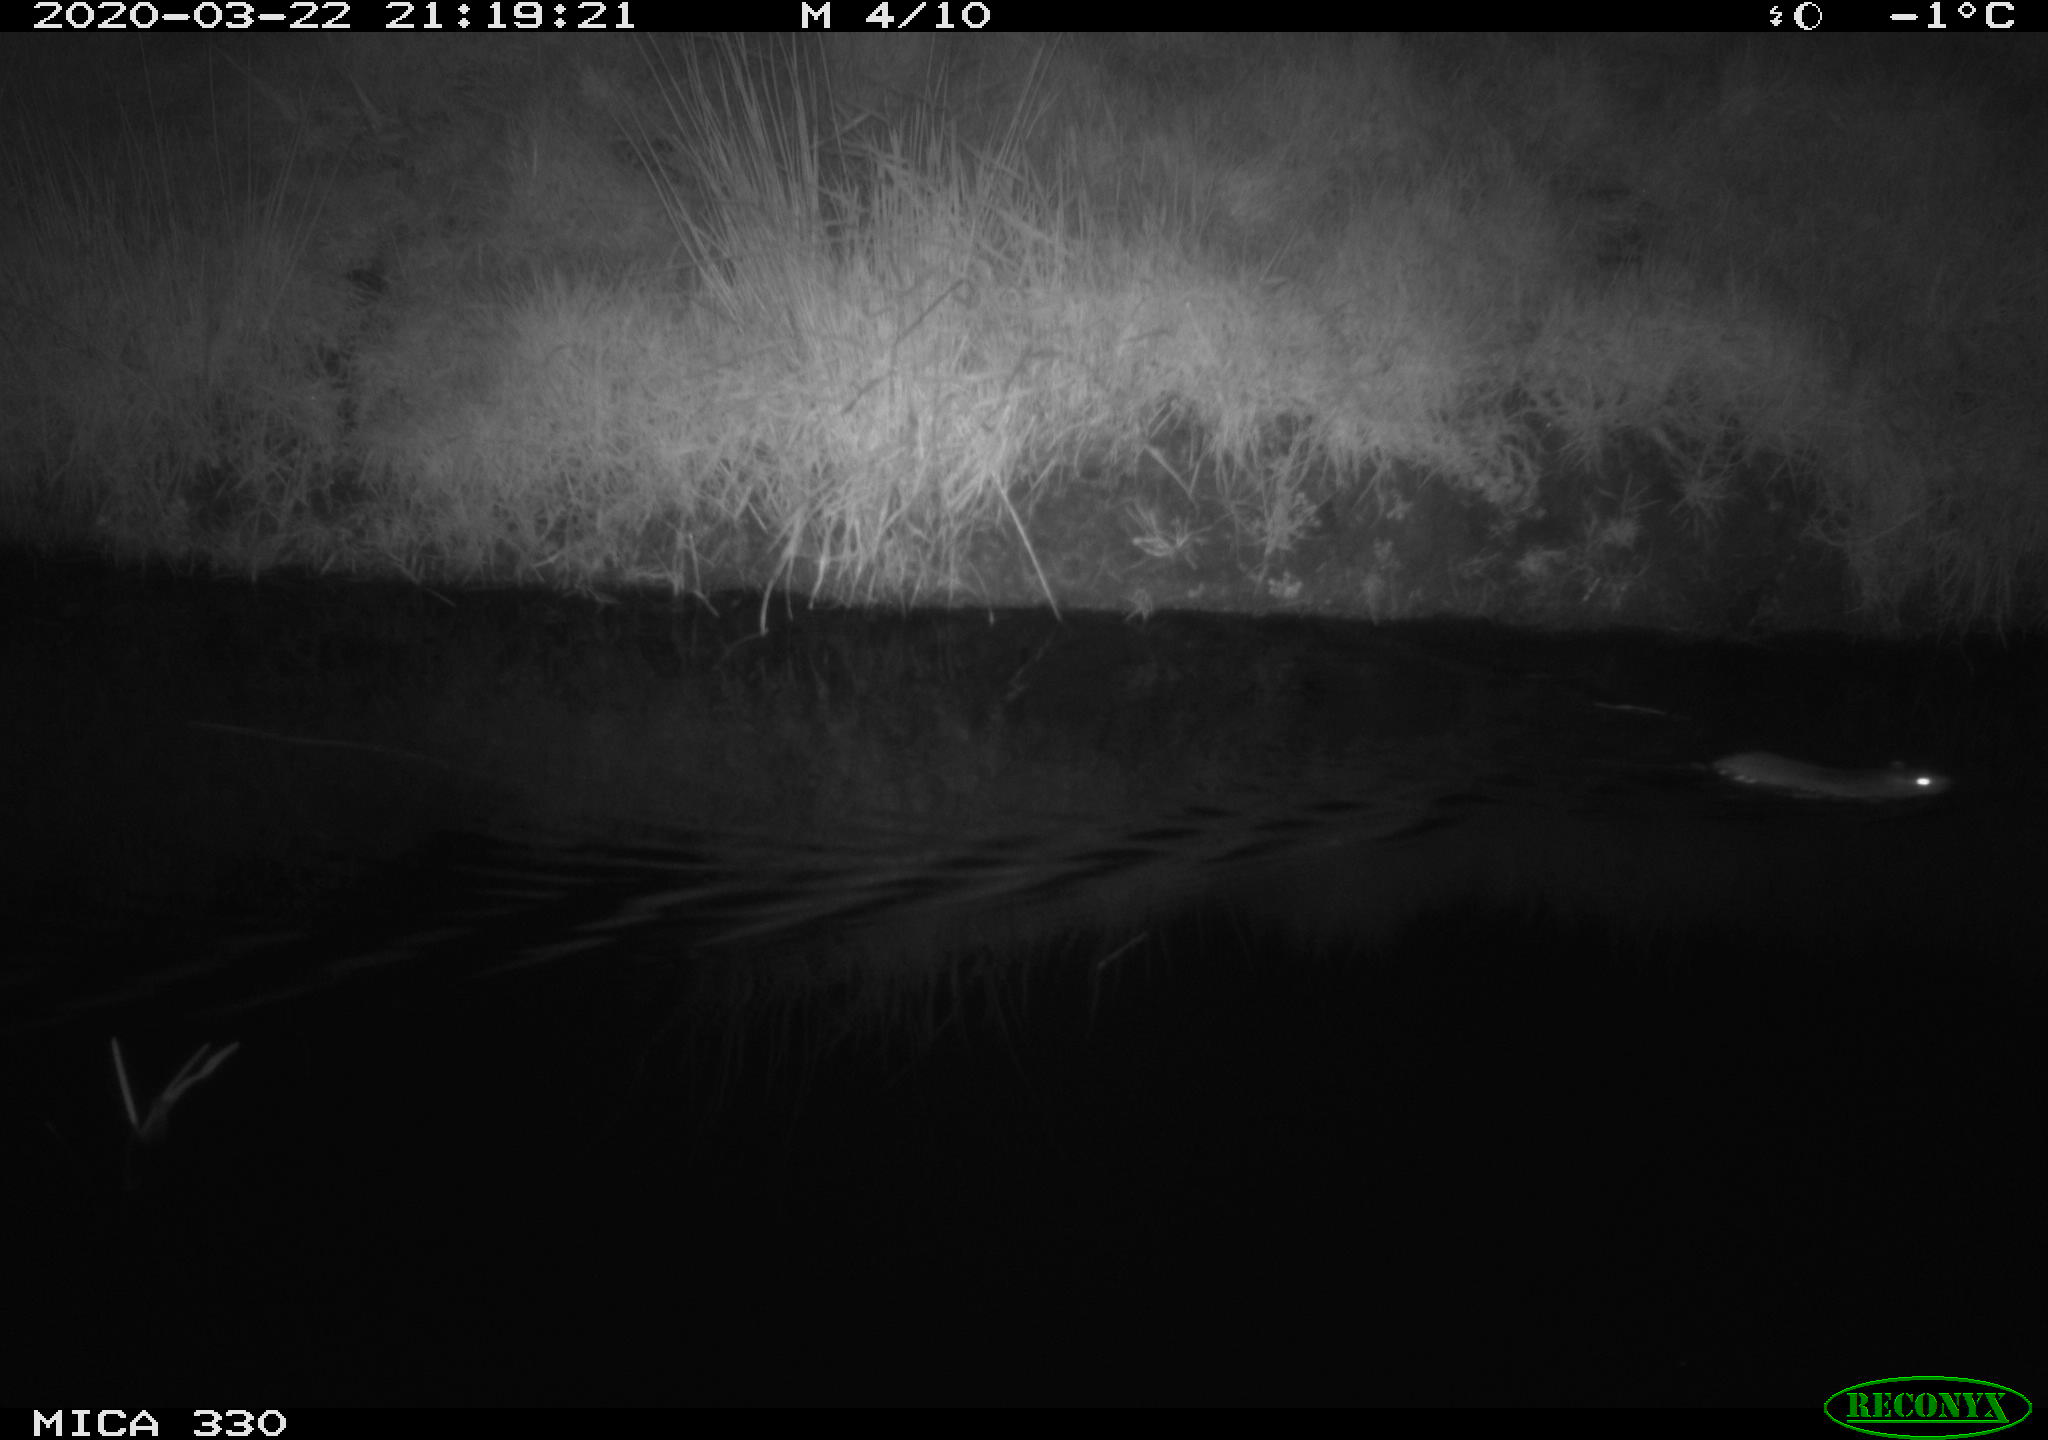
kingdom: Animalia
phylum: Chordata
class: Mammalia
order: Rodentia
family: Muridae
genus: Rattus
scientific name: Rattus norvegicus
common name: Brown rat
